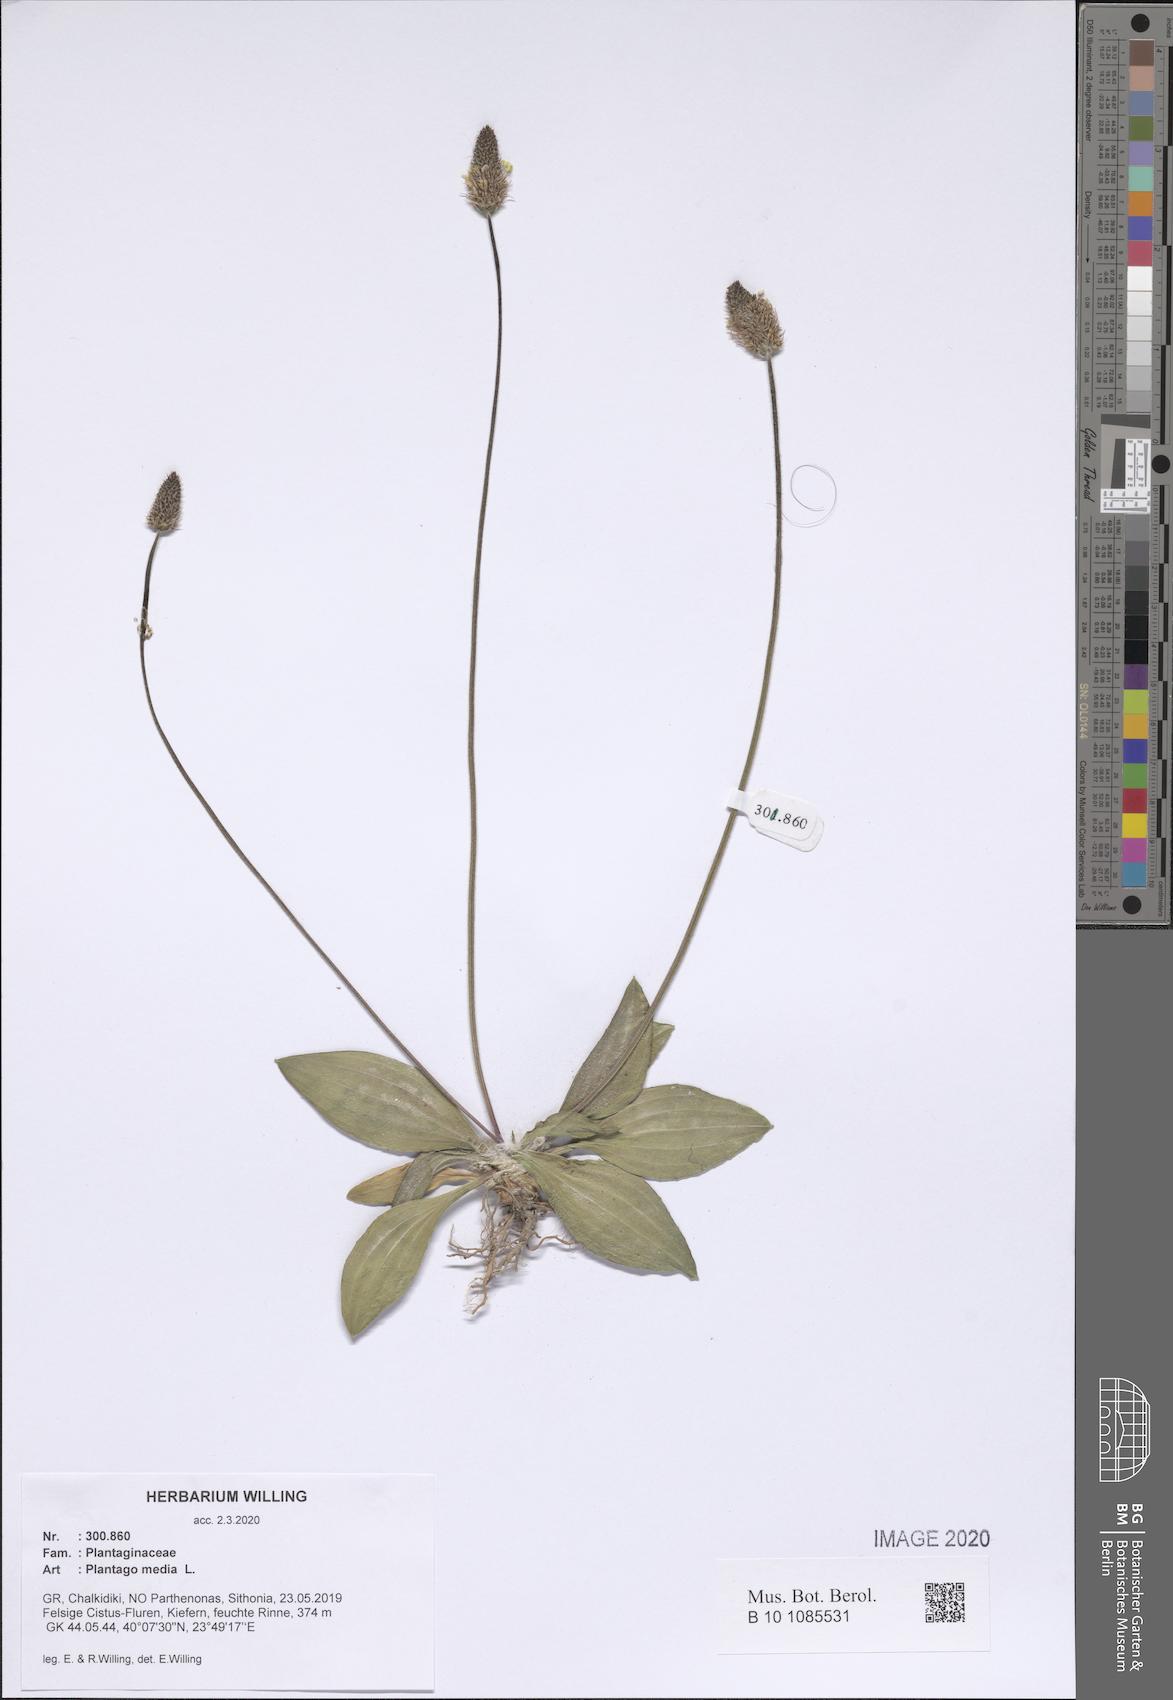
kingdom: Plantae
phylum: Tracheophyta
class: Magnoliopsida
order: Lamiales
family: Plantaginaceae
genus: Plantago
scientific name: Plantago media
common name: Hoary plantain
